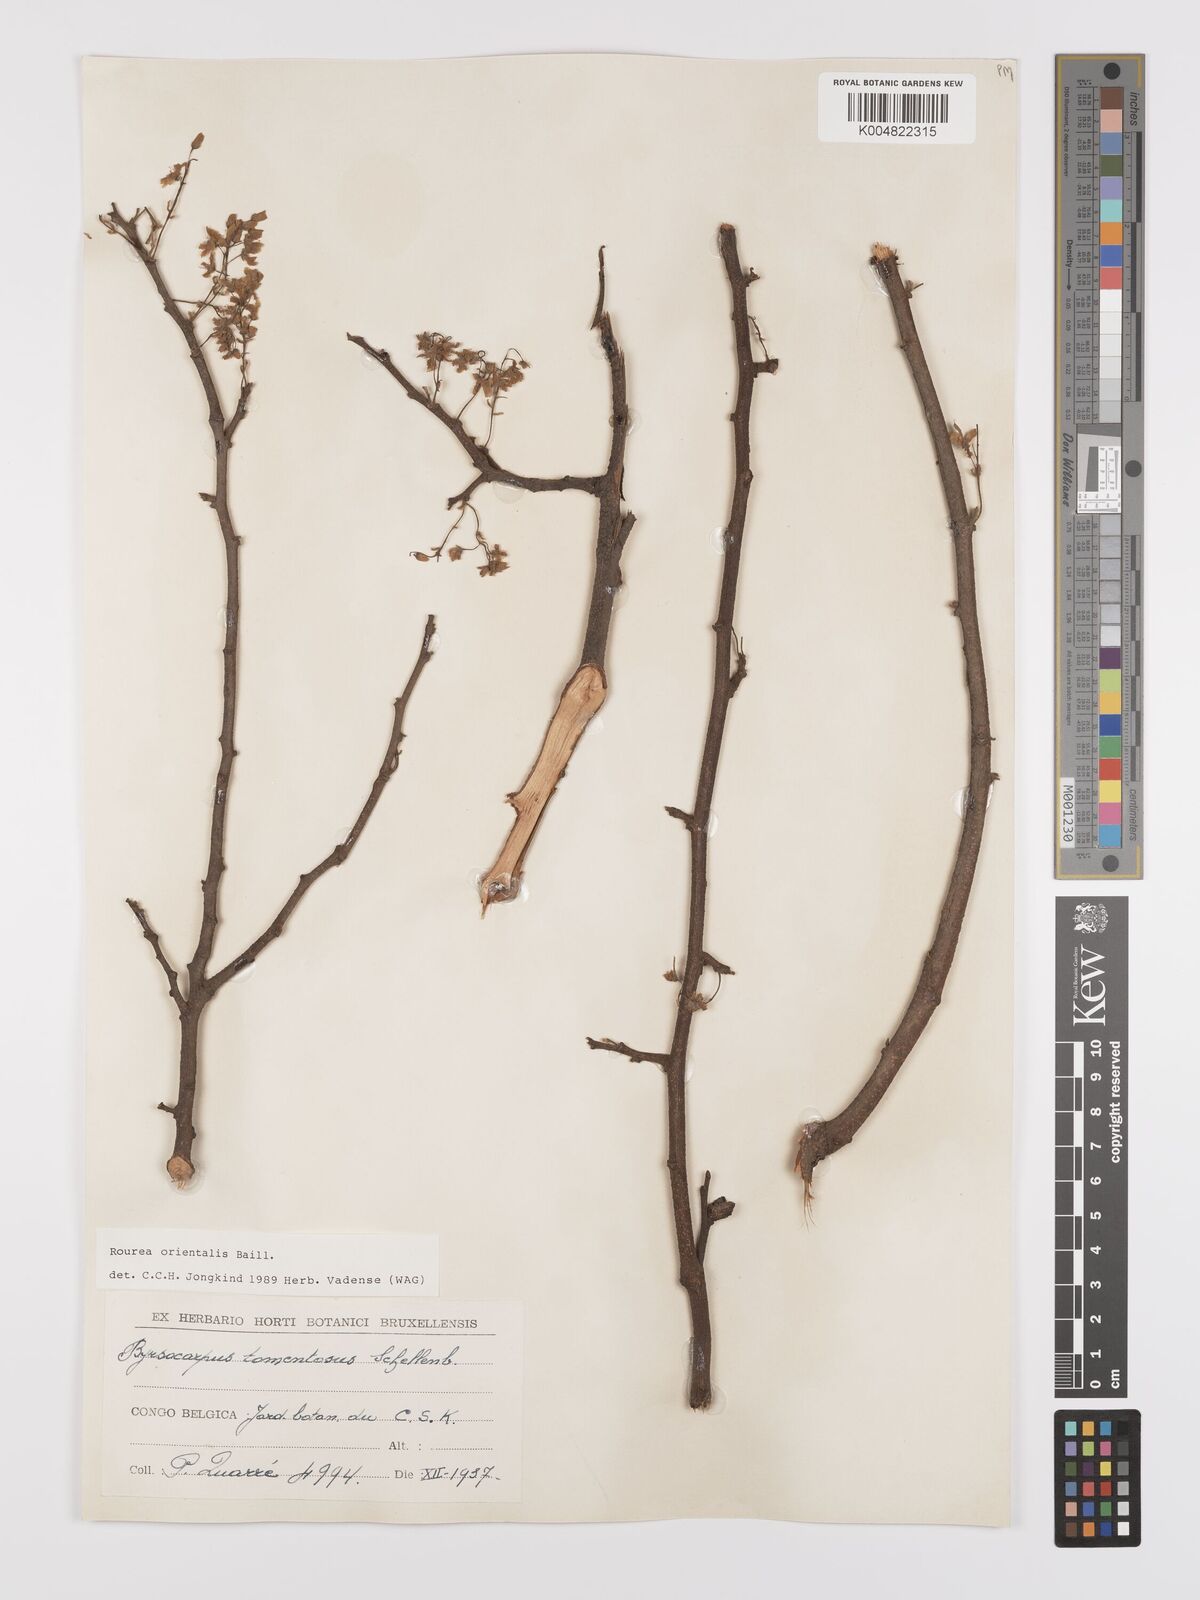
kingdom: Plantae
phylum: Tracheophyta
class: Magnoliopsida
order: Oxalidales
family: Connaraceae
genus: Rourea
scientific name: Rourea orientalis
